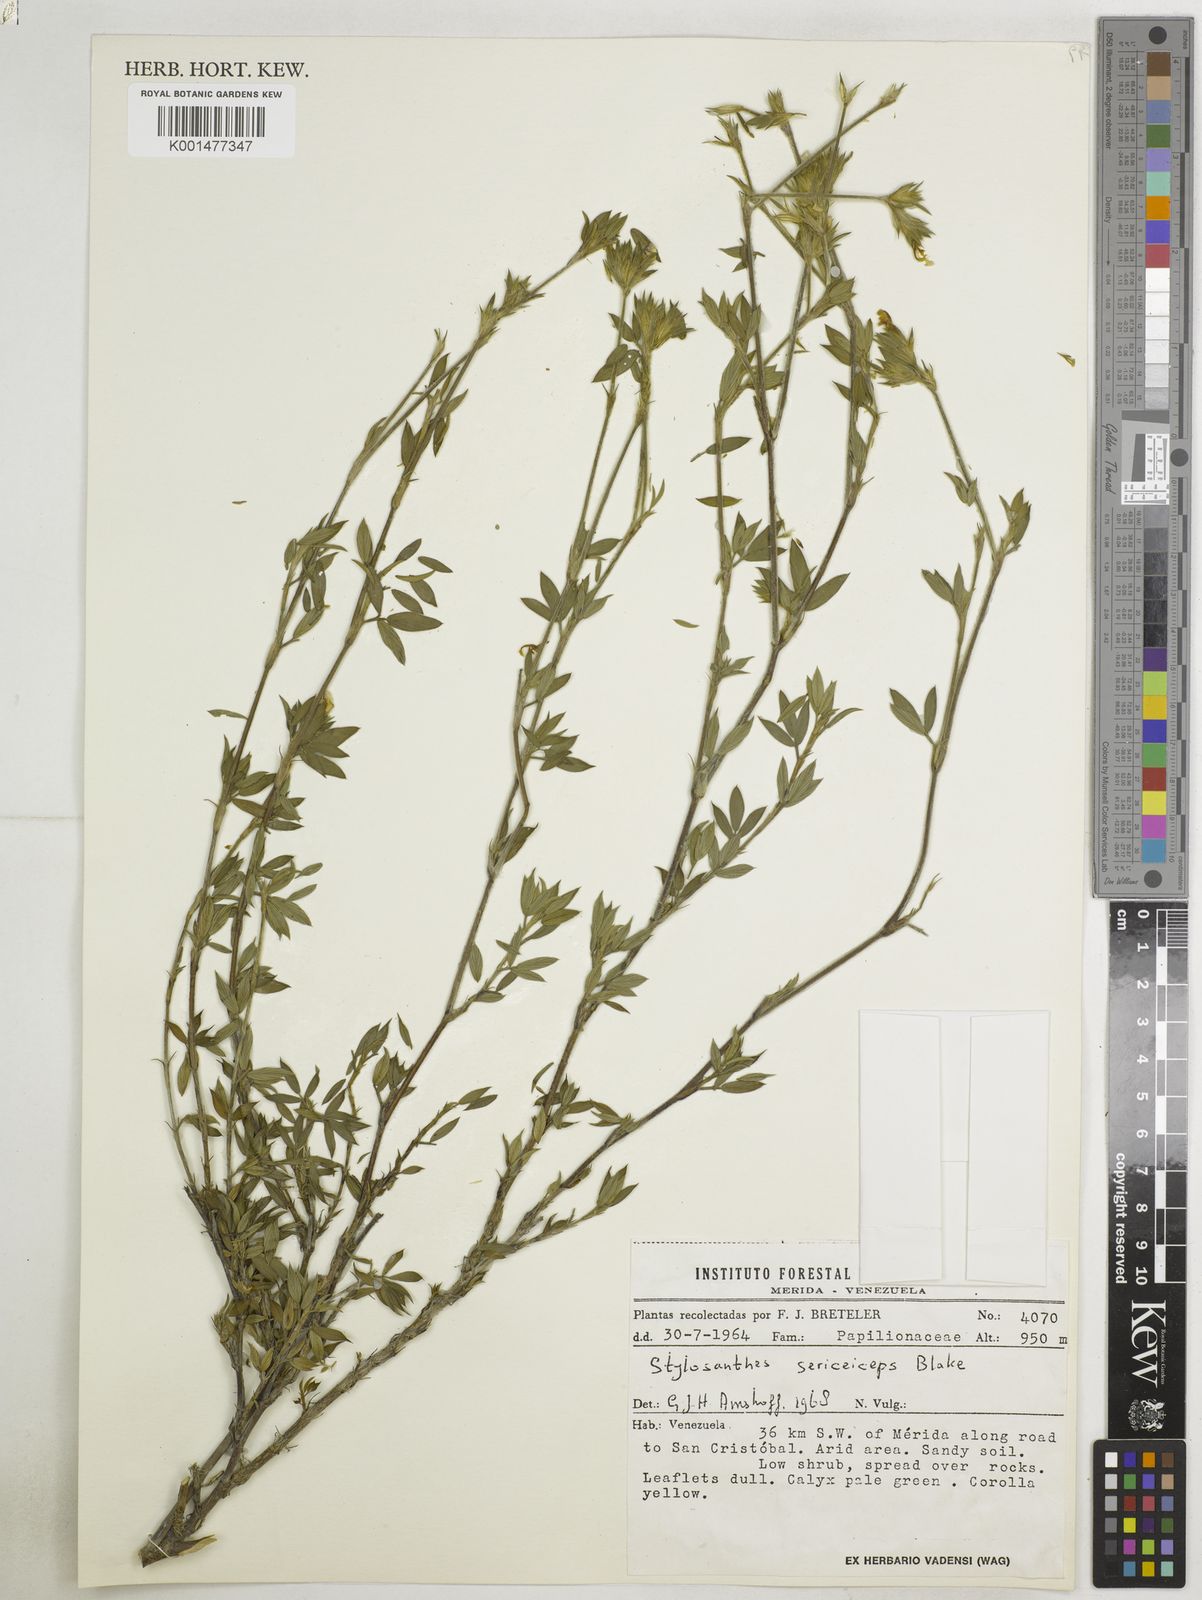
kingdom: Plantae
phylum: Tracheophyta
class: Magnoliopsida
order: Fabales
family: Fabaceae
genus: Stylosanthes
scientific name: Stylosanthes sericeiceps
